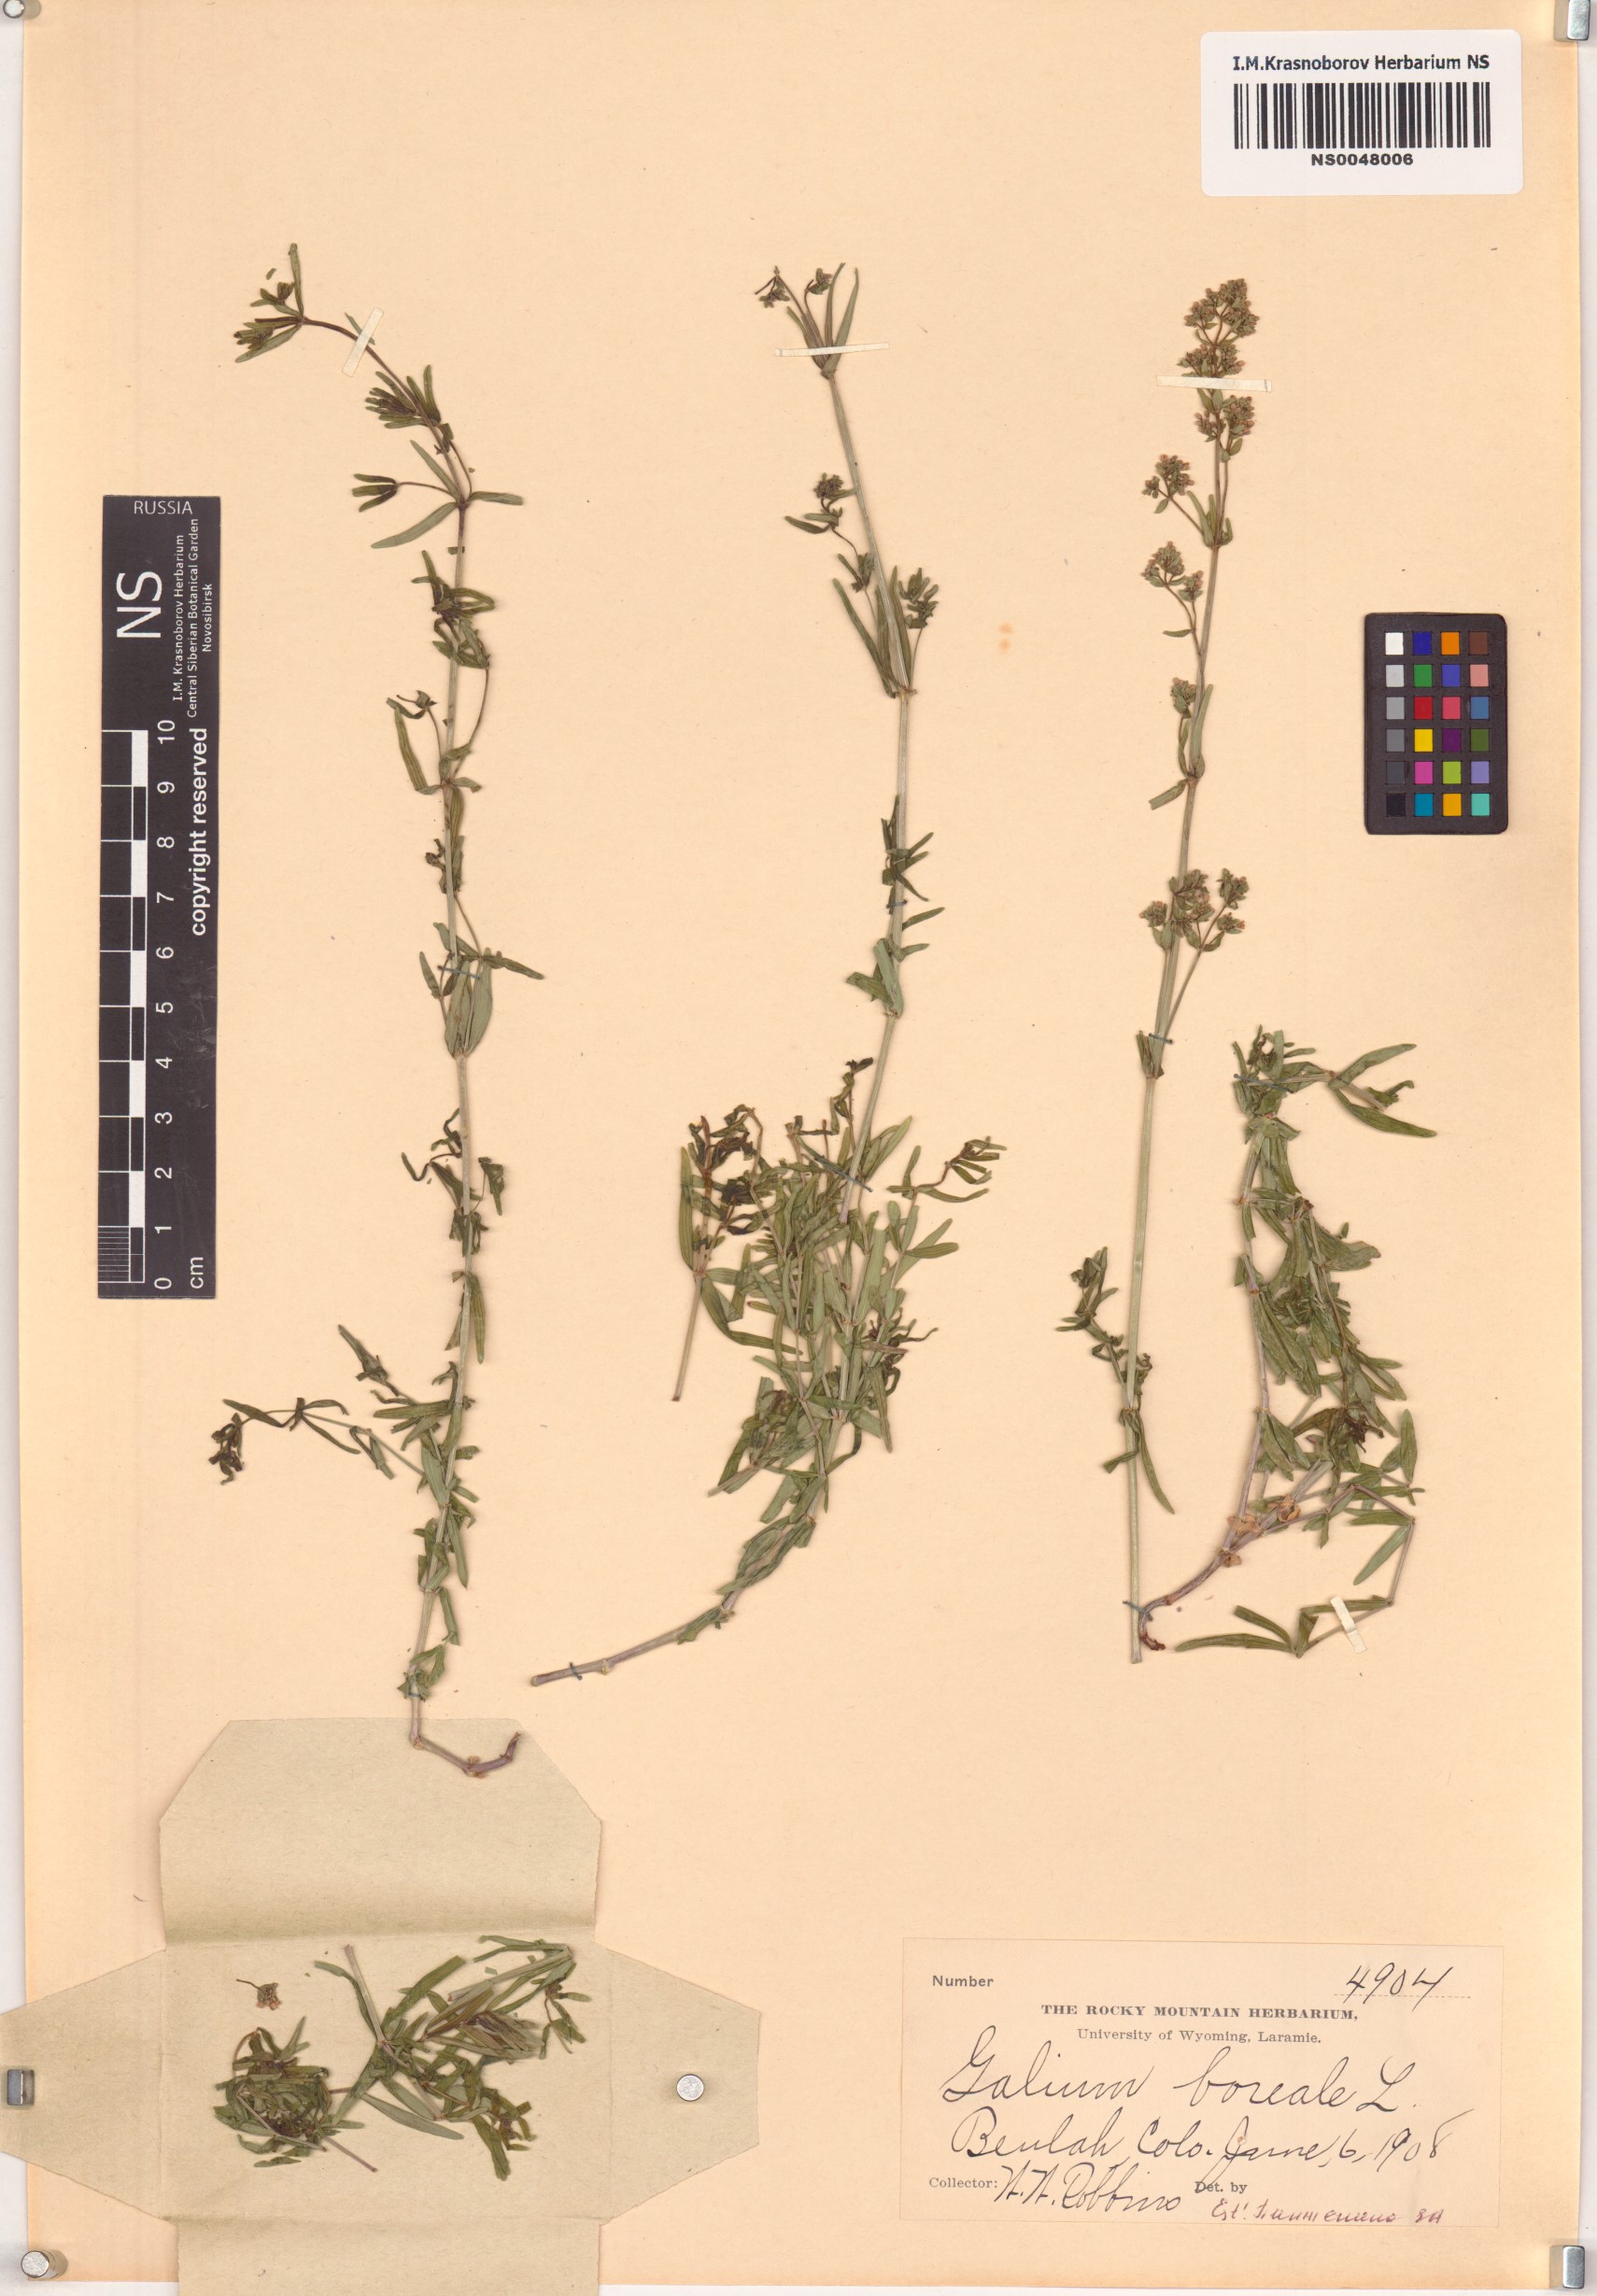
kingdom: Plantae
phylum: Tracheophyta
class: Magnoliopsida
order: Gentianales
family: Rubiaceae
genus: Galium
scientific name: Galium boreale
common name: Northern bedstraw
